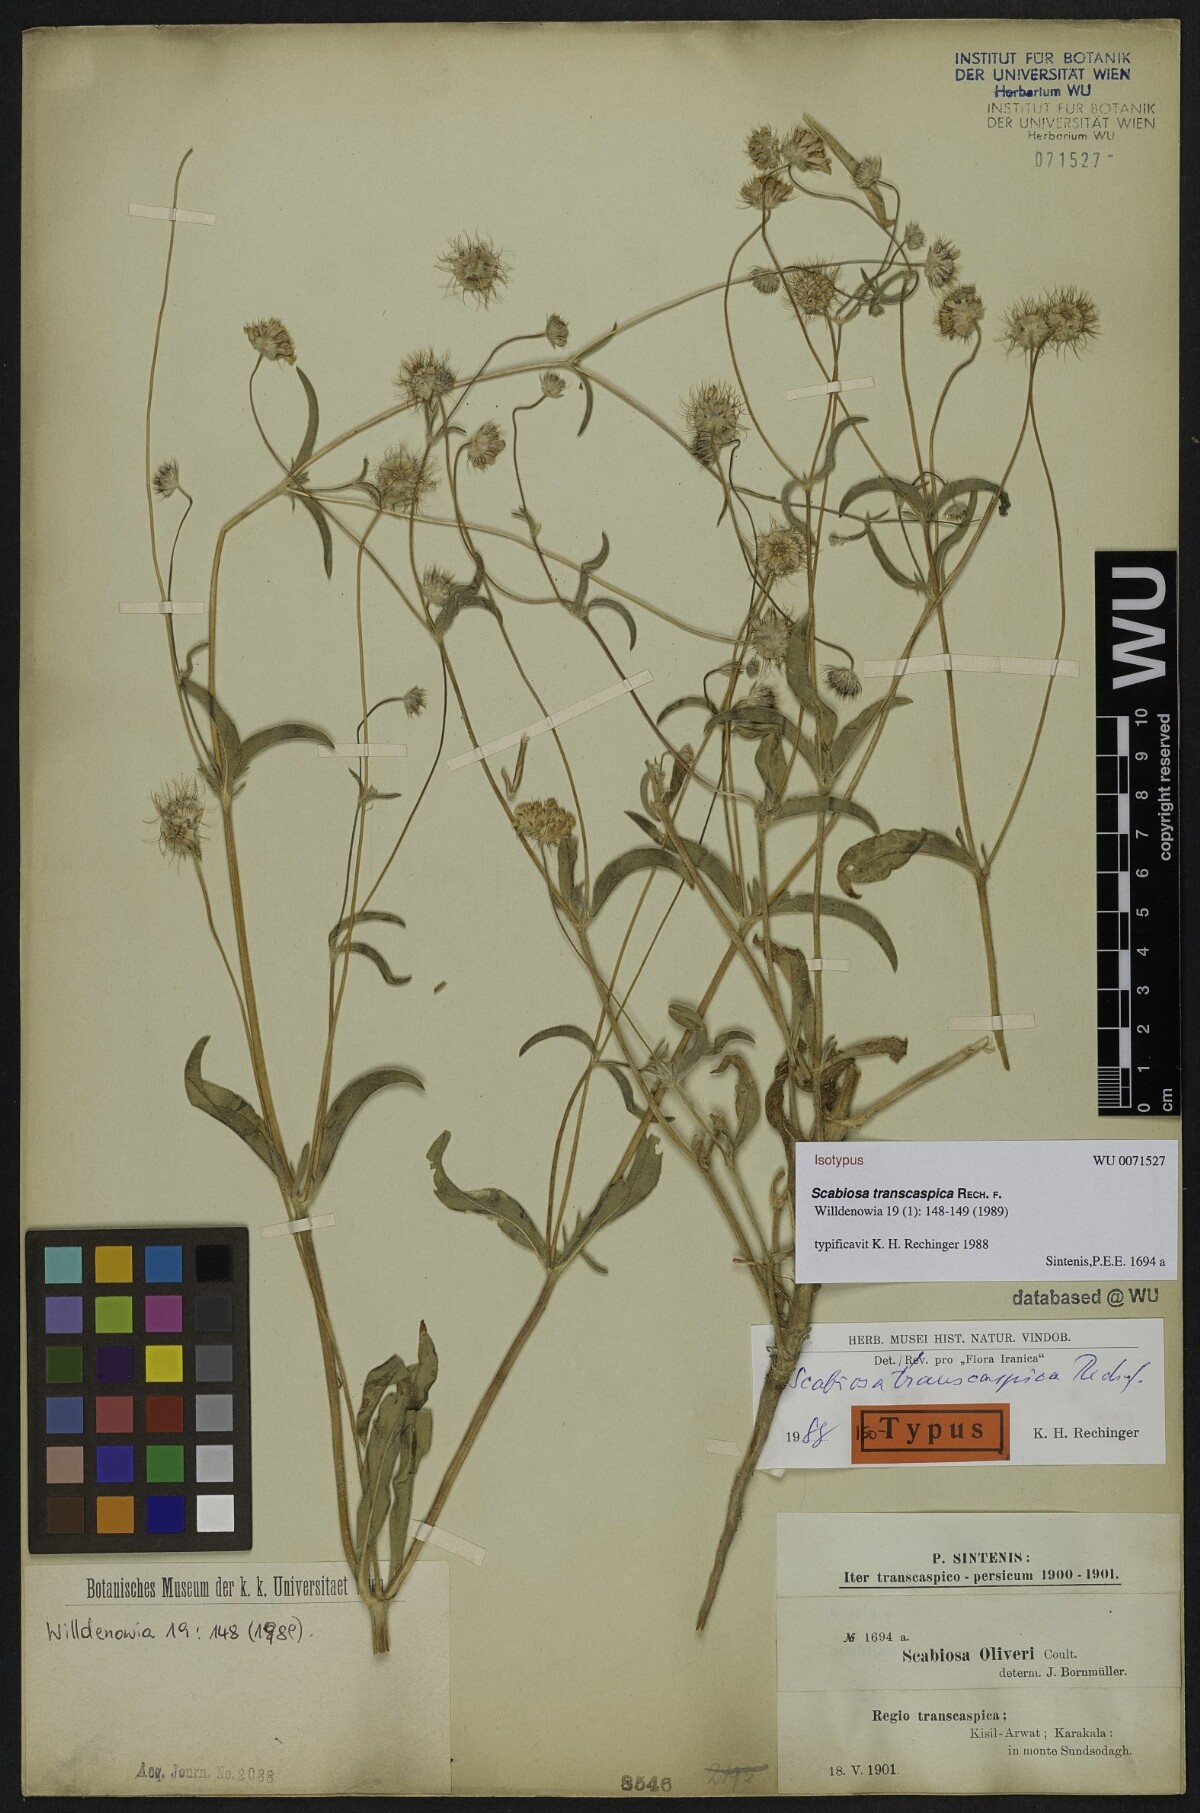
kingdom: Plantae
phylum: Tracheophyta
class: Magnoliopsida
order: Dipsacales
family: Caprifoliaceae
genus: Lomelosia
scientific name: Lomelosia transcaspica
